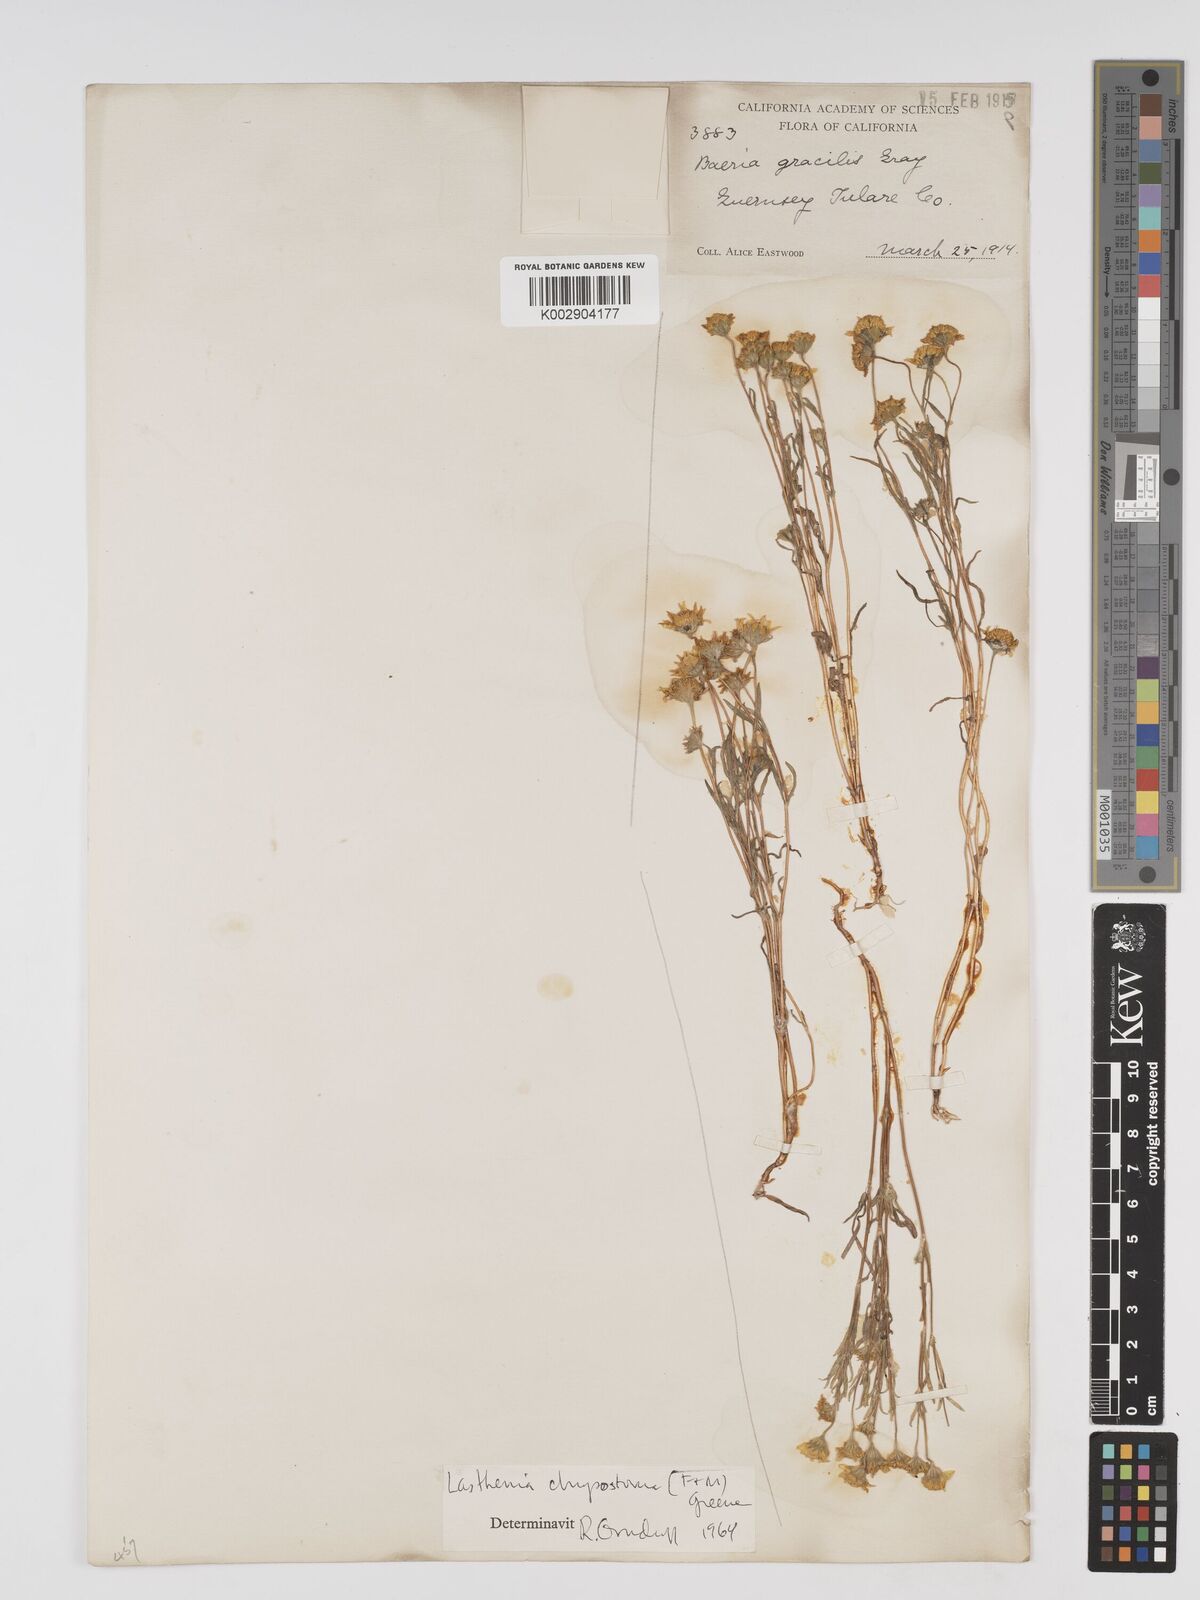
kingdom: Plantae
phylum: Tracheophyta
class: Magnoliopsida
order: Asterales
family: Asteraceae
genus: Lasthenia
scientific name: Lasthenia californica
